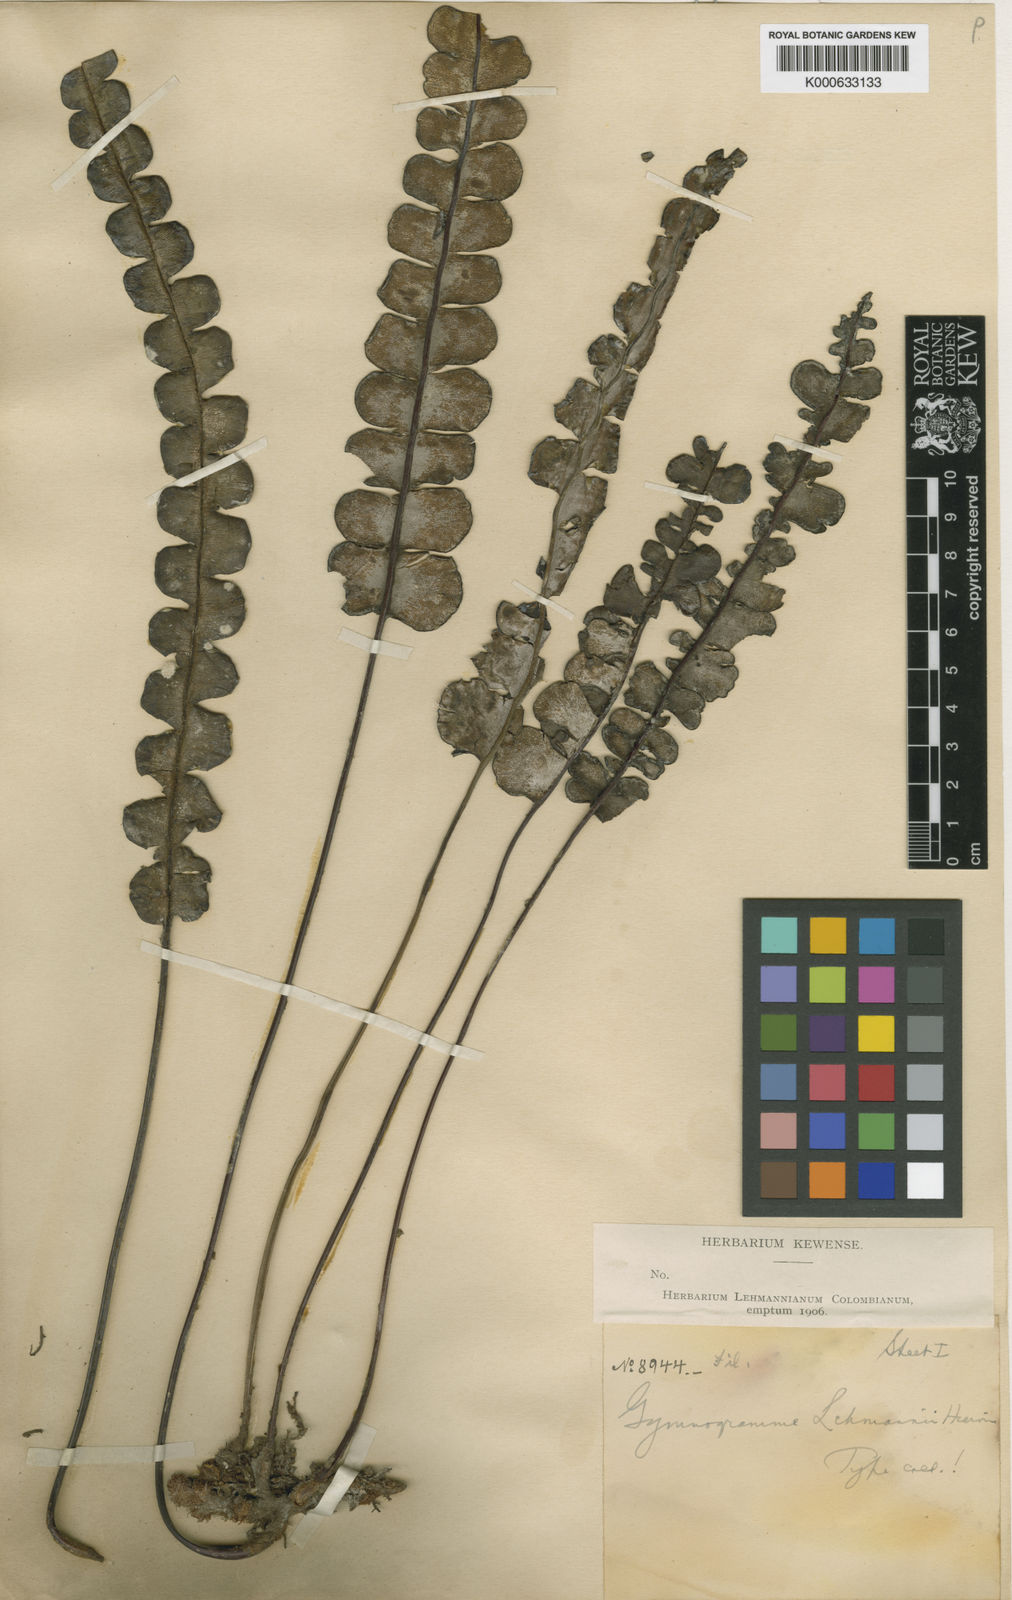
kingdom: Plantae
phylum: Tracheophyta
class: Polypodiopsida
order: Polypodiales
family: Pteridaceae
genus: Jamesonia
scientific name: Jamesonia
